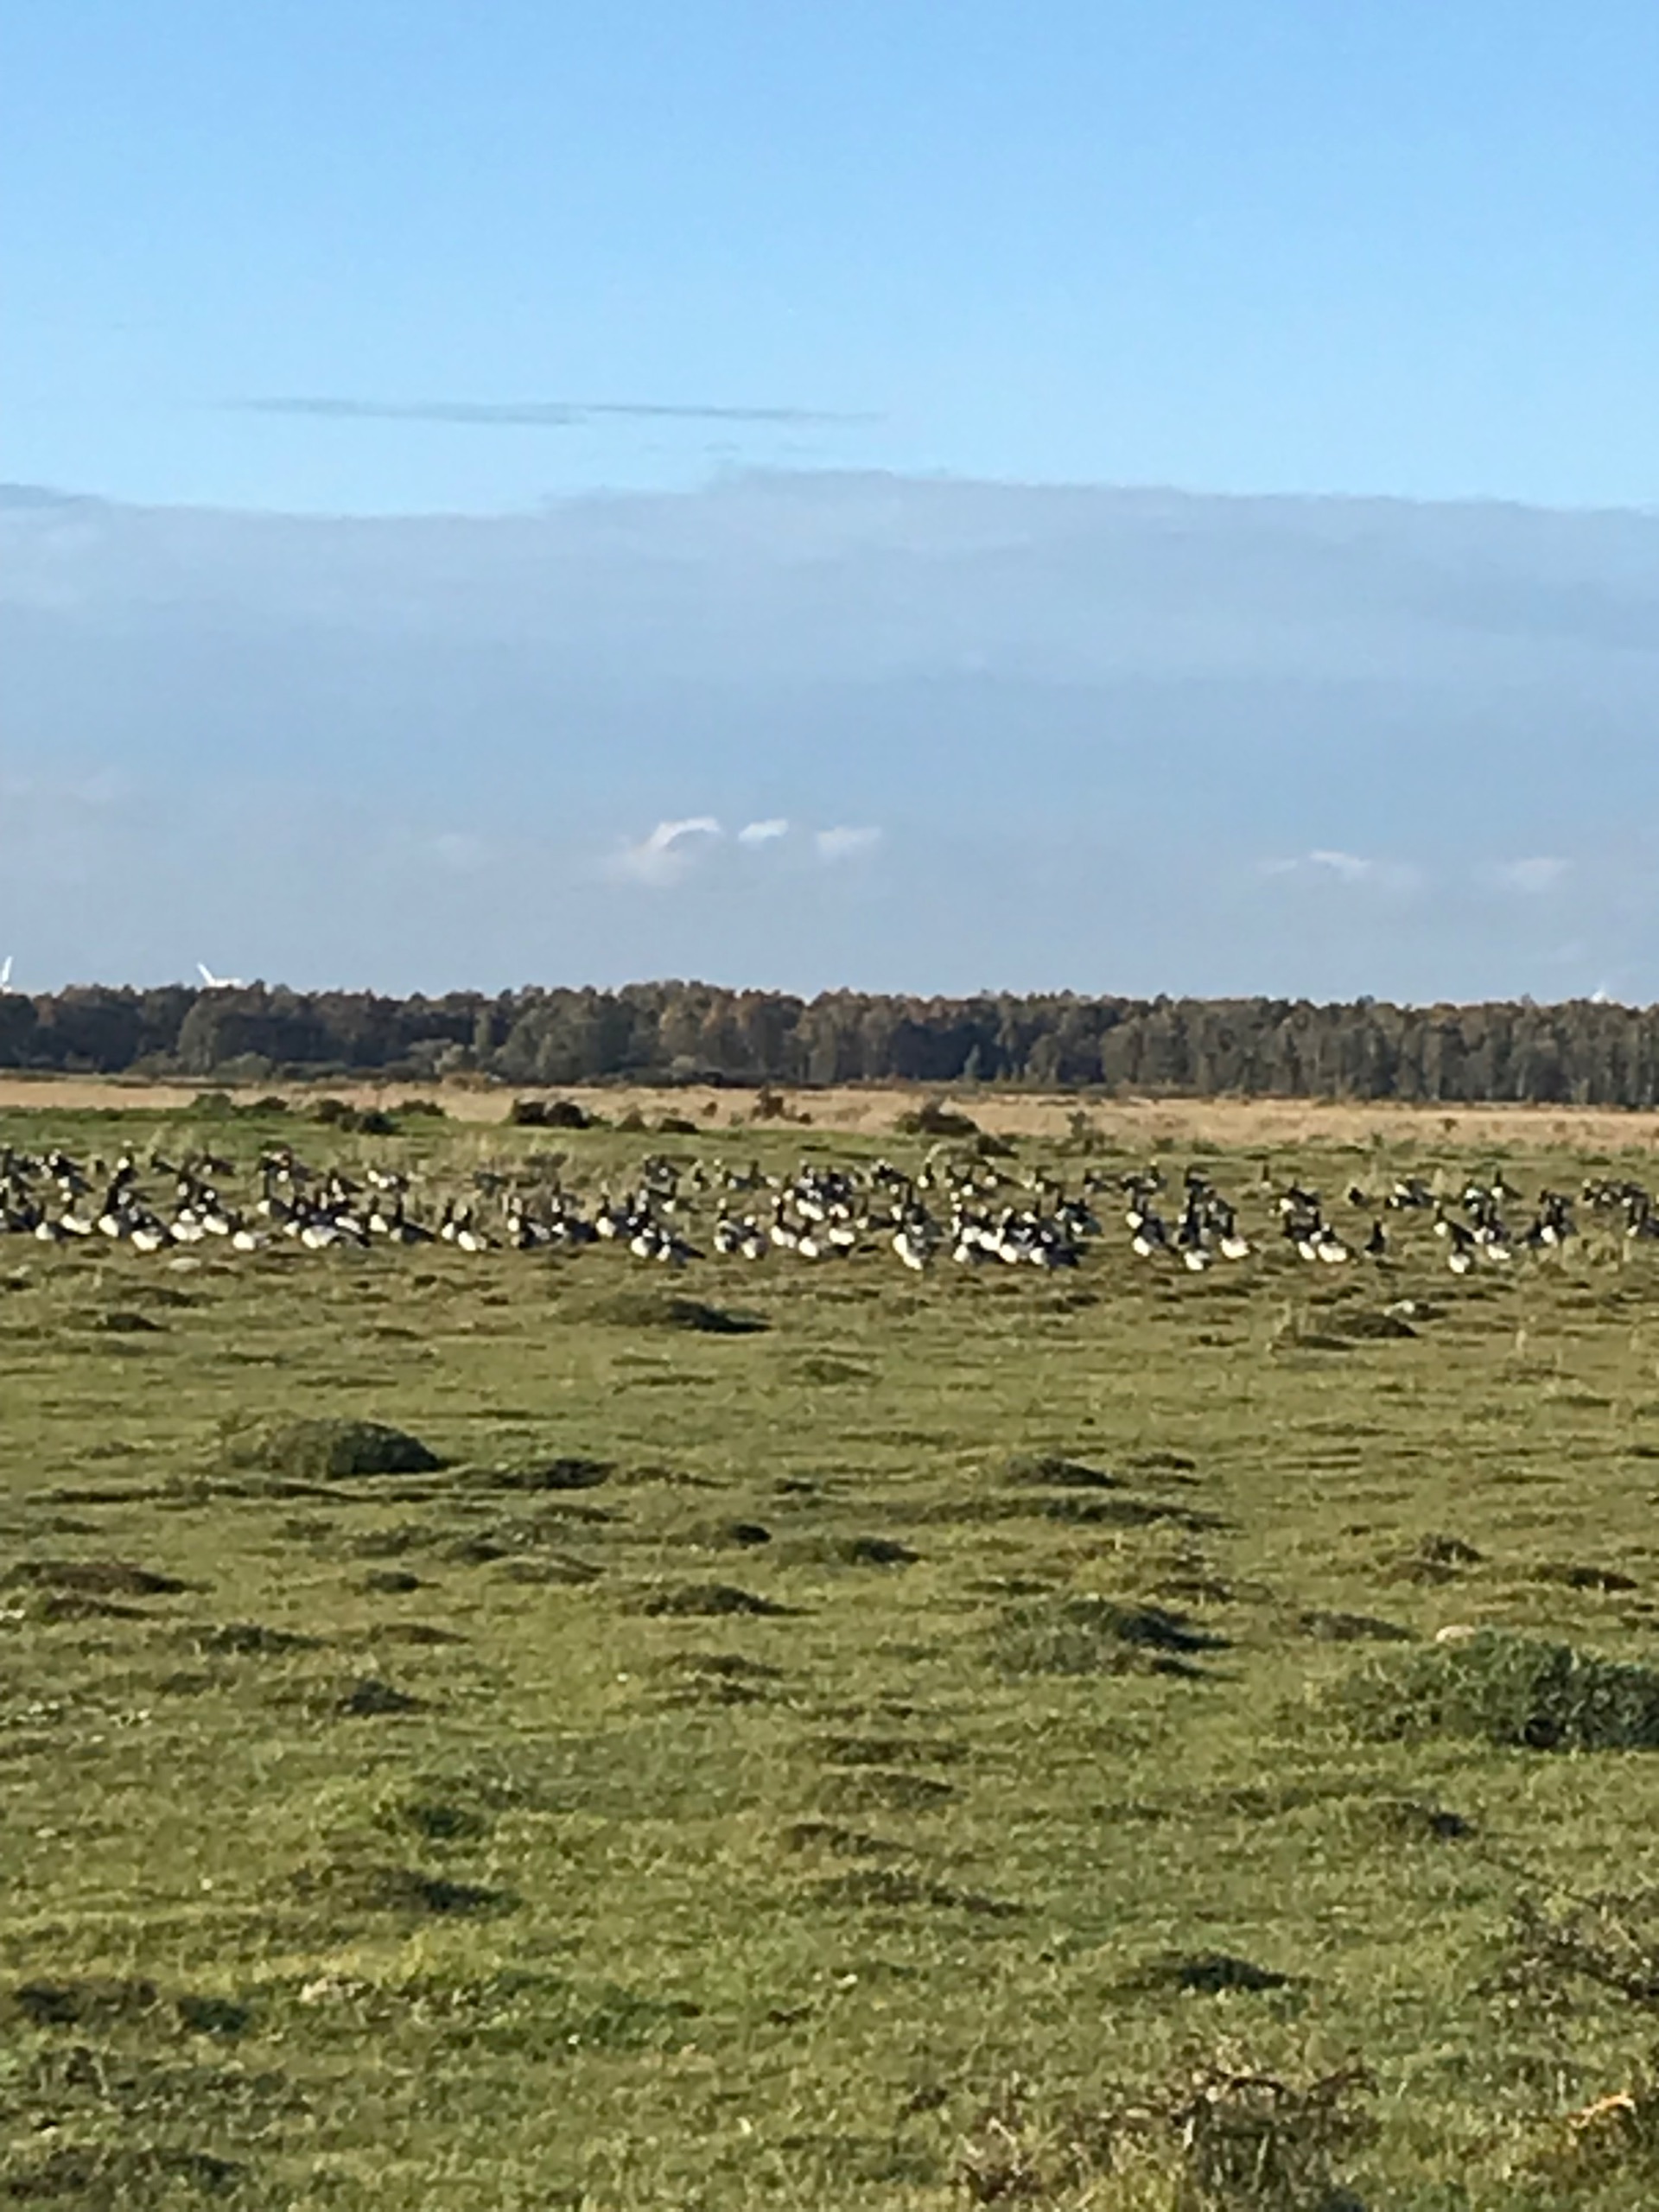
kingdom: Animalia
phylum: Chordata
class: Aves
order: Anseriformes
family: Anatidae
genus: Branta
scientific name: Branta leucopsis
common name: Bramgås
